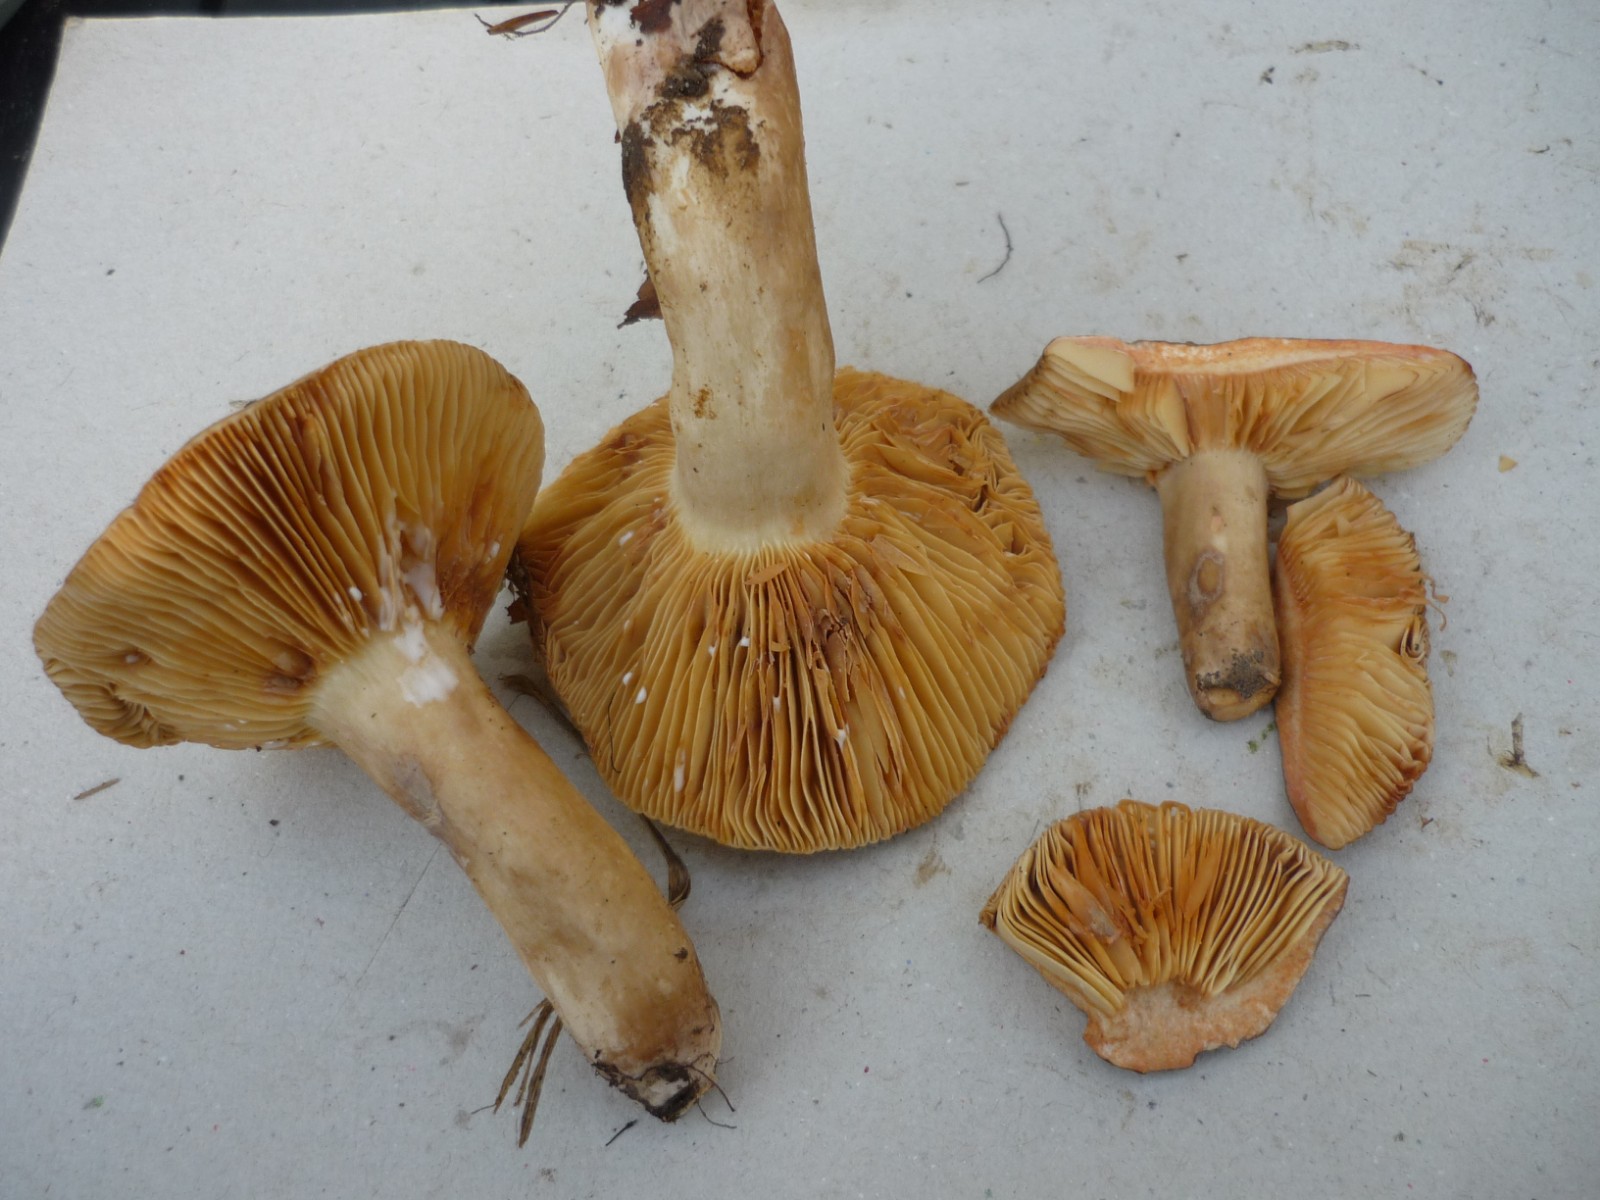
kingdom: Fungi
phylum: Basidiomycota
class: Agaricomycetes
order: Russulales
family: Russulaceae
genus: Lactarius
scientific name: Lactarius ruginosus
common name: gråbrun mælkehat
